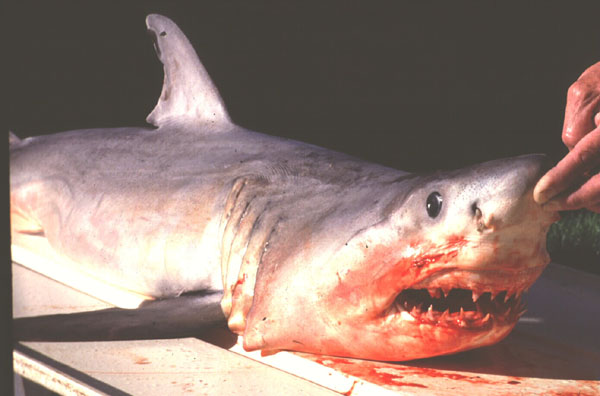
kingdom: Animalia
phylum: Chordata
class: Elasmobranchii
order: Lamniformes
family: Lamnidae
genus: Carcharodon
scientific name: Carcharodon carcharias
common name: Great white shark
